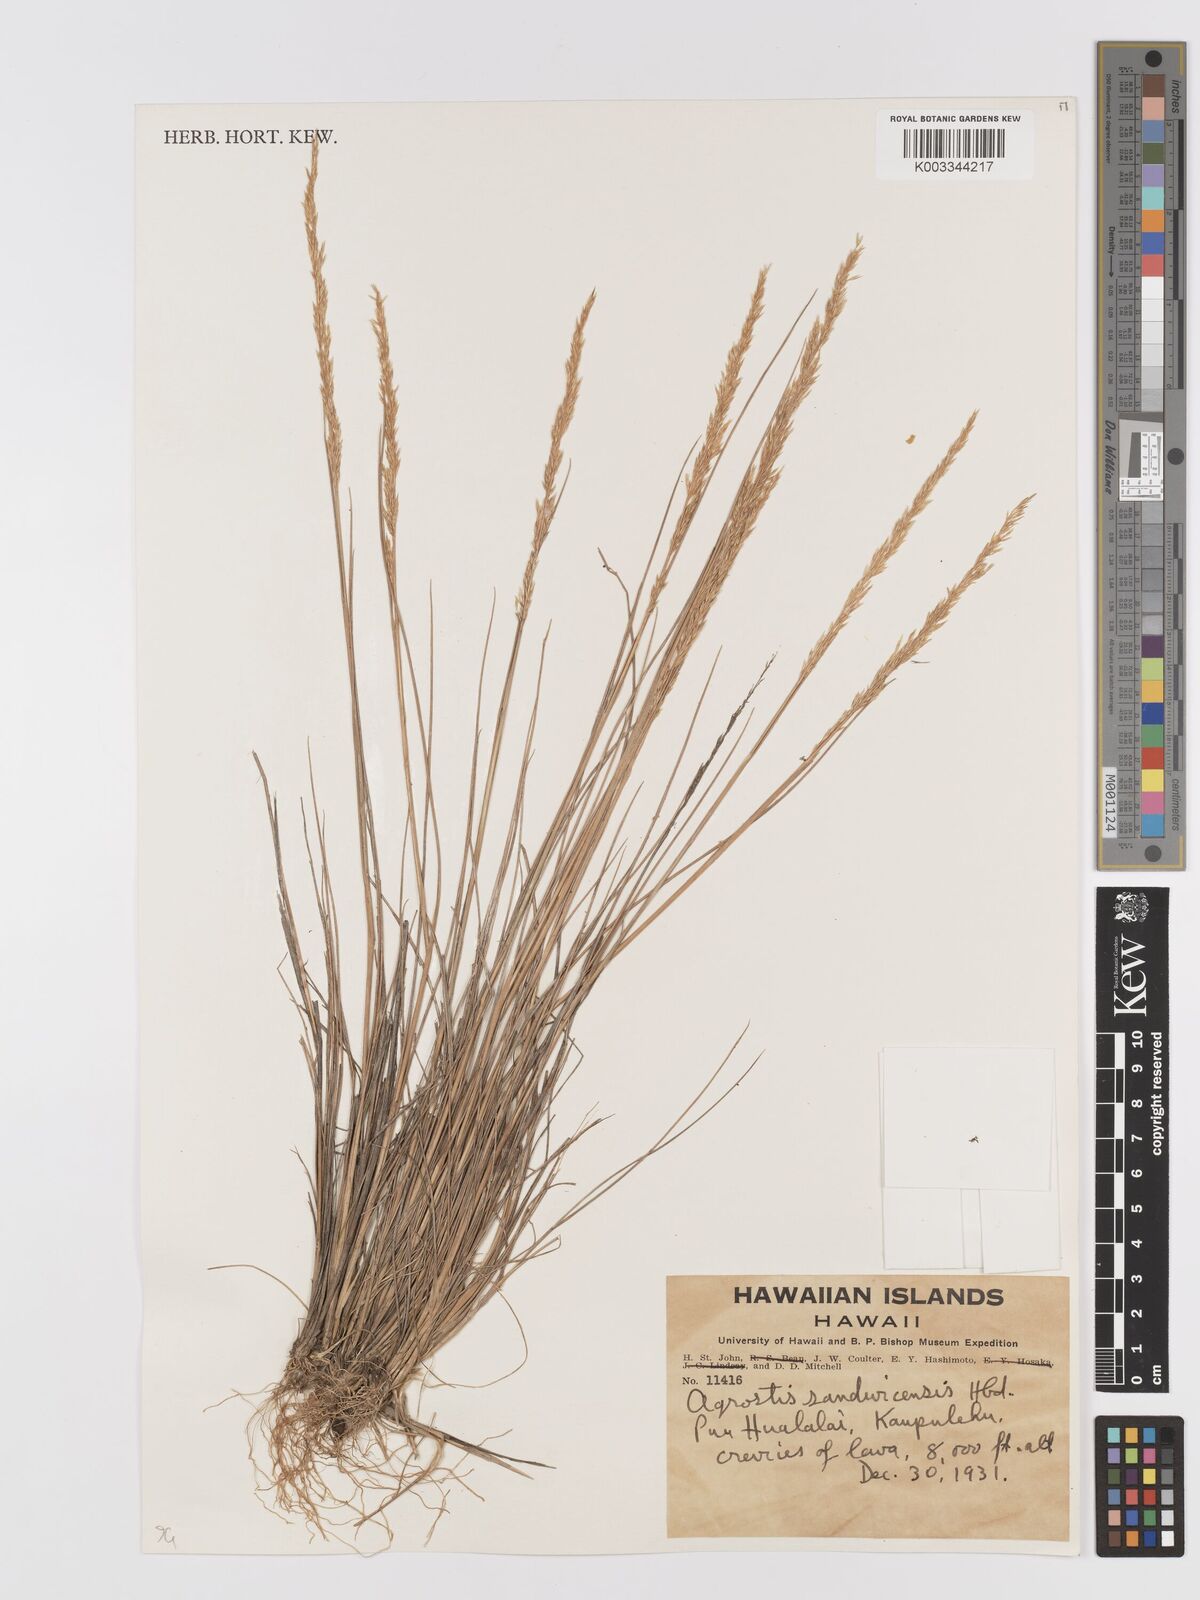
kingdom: Plantae
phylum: Tracheophyta
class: Liliopsida
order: Poales
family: Poaceae
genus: Agrostis
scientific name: Agrostis
